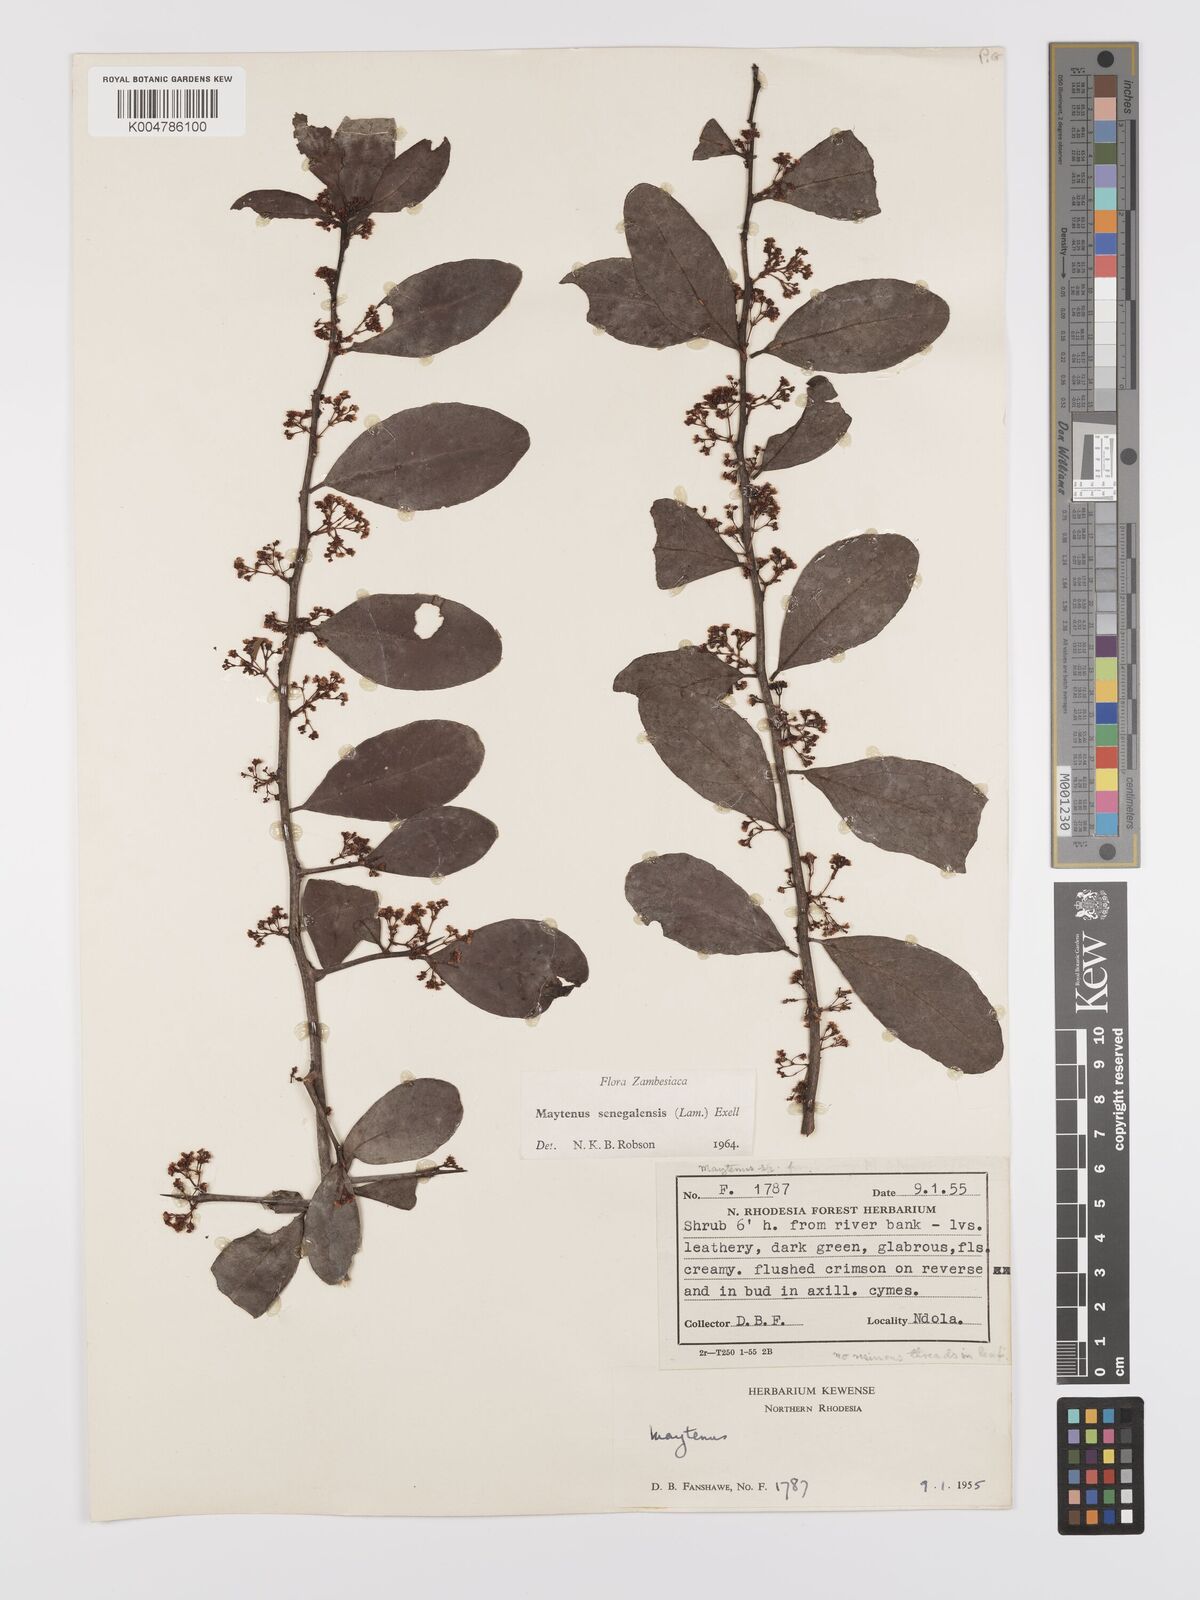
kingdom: Plantae
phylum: Tracheophyta
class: Magnoliopsida
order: Celastrales
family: Celastraceae
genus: Gymnosporia
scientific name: Gymnosporia senegalensis
